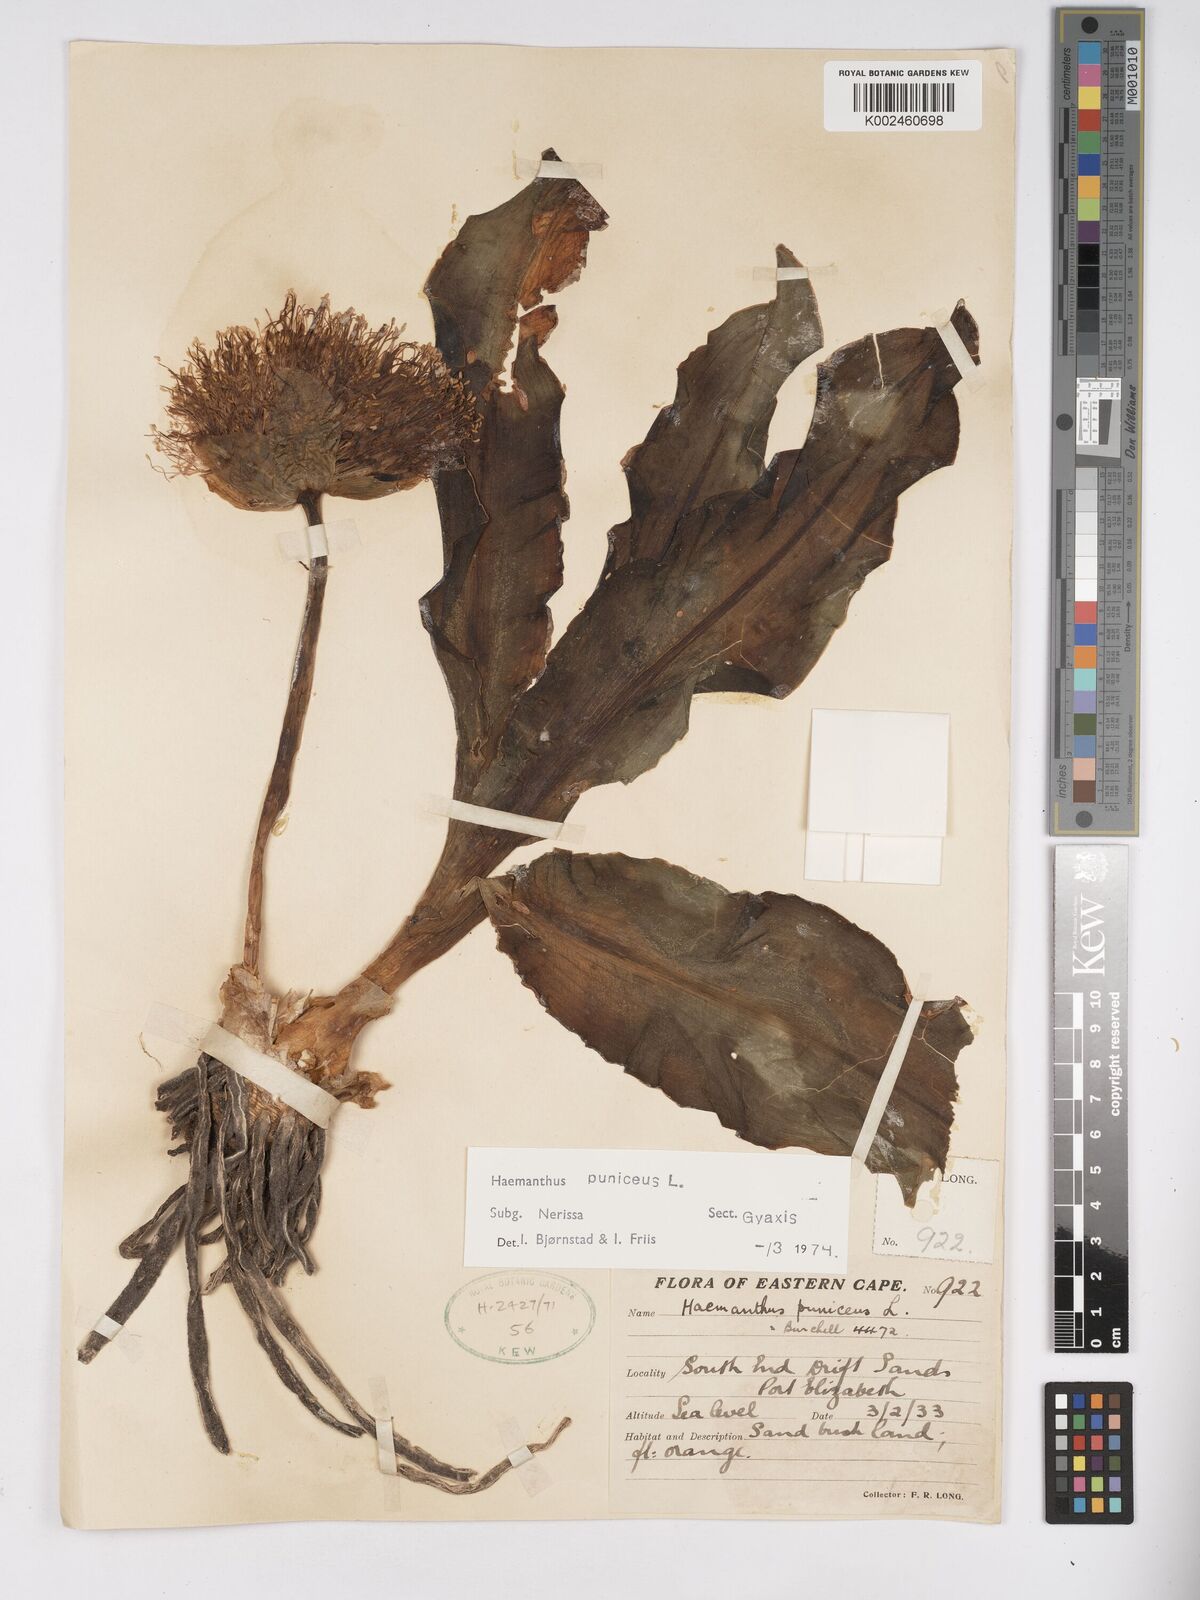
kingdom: Plantae
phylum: Tracheophyta
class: Liliopsida
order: Asparagales
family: Amaryllidaceae
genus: Scadoxus
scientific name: Scadoxus puniceus
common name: Royal-paintbrush
